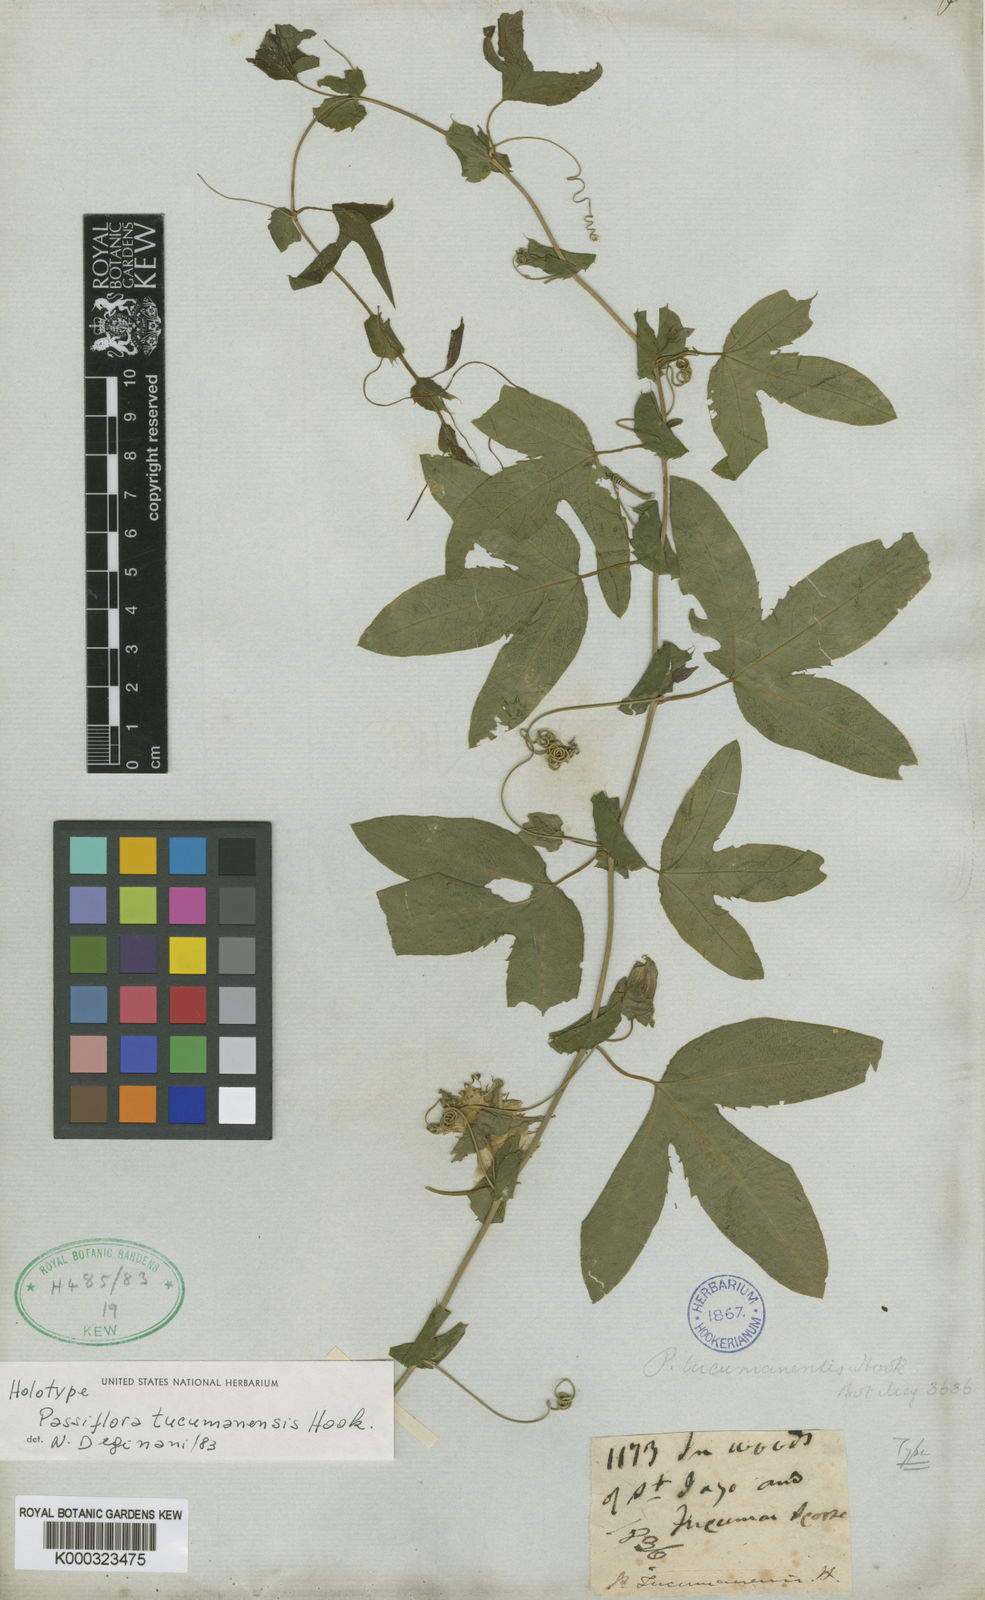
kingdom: Plantae
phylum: Tracheophyta
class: Magnoliopsida
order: Malpighiales
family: Passifloraceae
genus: Passiflora
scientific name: Passiflora tucumanensis
